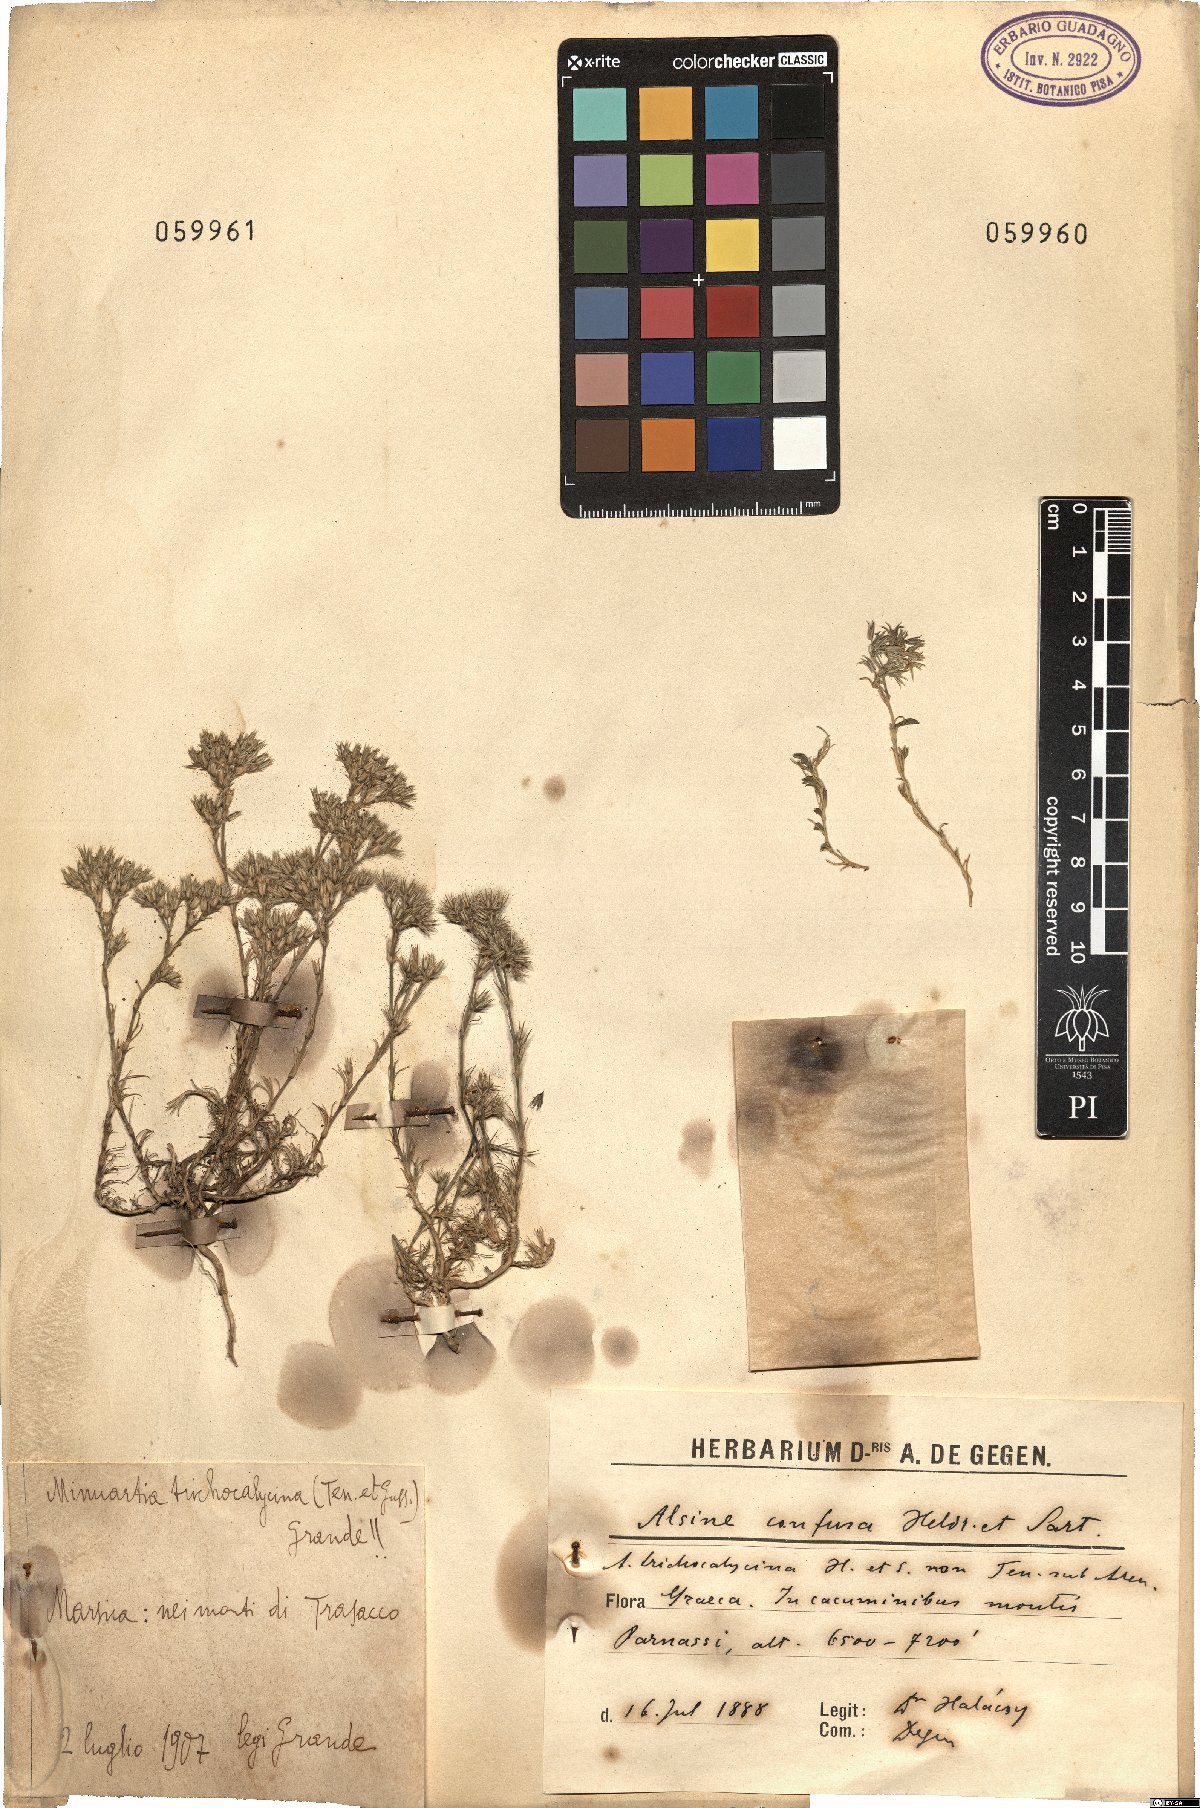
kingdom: Plantae
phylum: Tracheophyta
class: Magnoliopsida
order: Caryophyllales
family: Caryophyllaceae
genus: Minuartia
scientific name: Minuartia confusa
